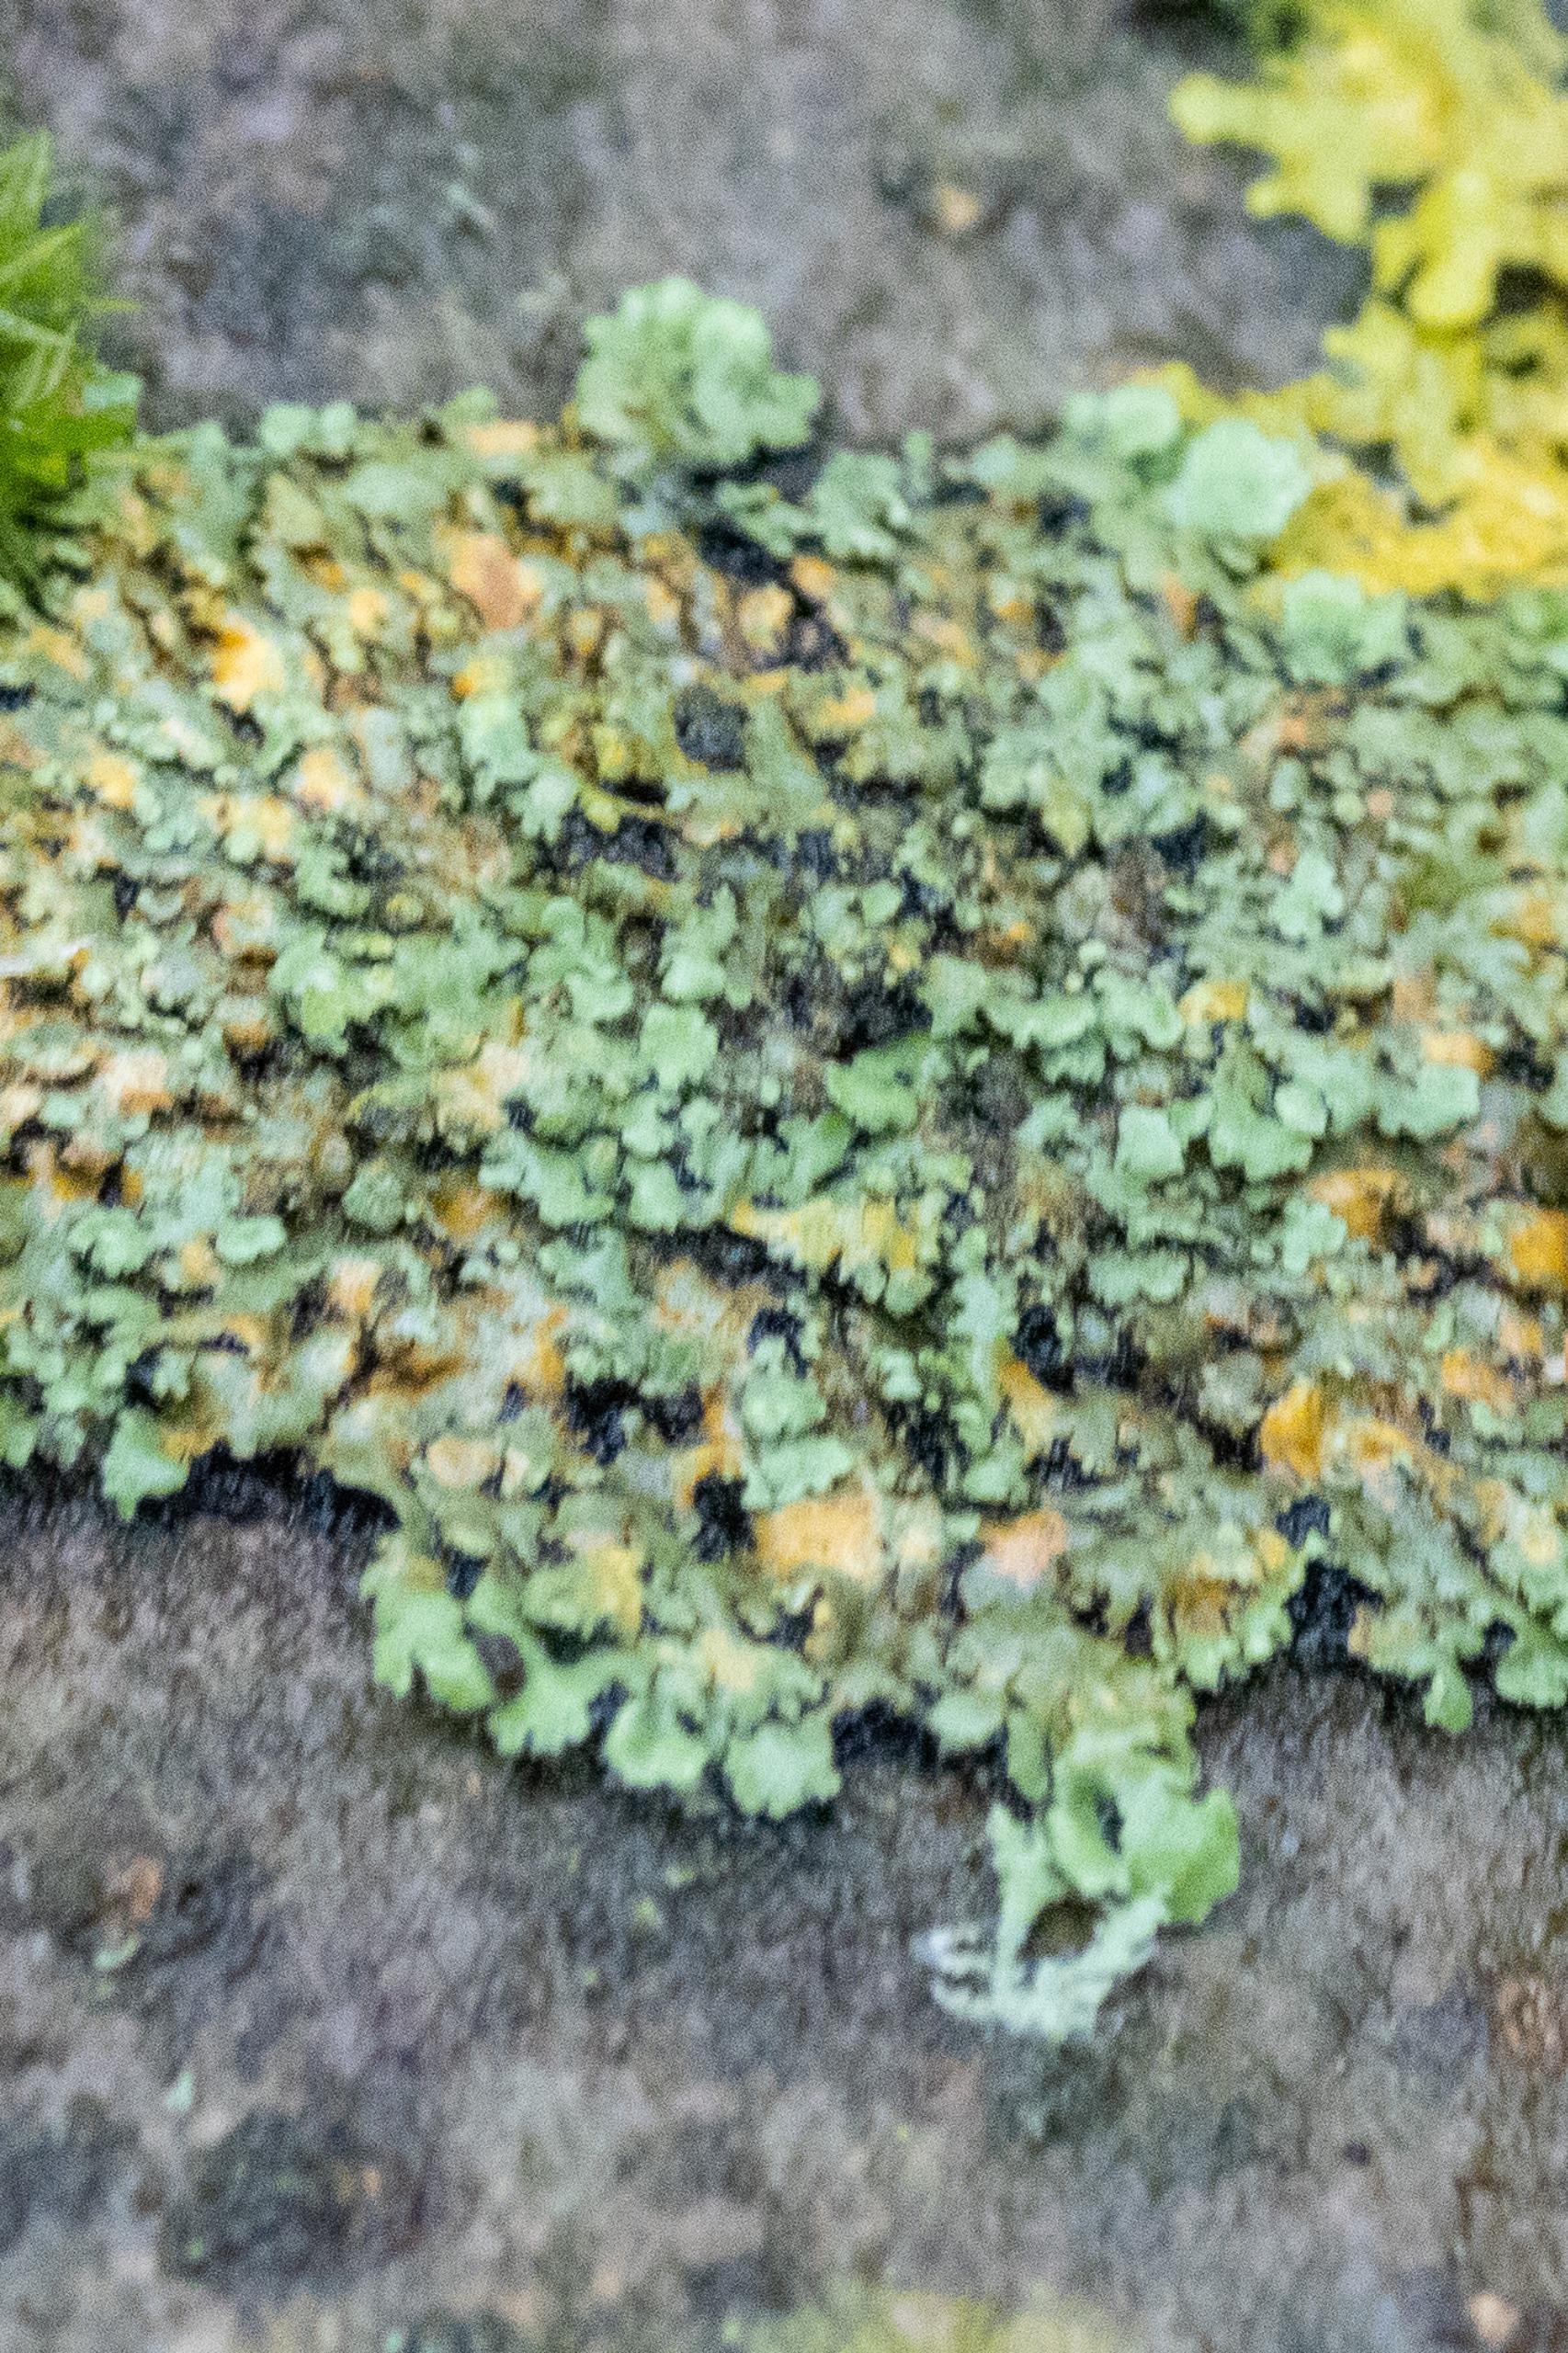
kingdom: Fungi
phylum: Ascomycota
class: Lecanoromycetes
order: Caliciales
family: Physciaceae
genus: Phaeophyscia
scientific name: Phaeophyscia orbicularis
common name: Grågrøn rosetlav
